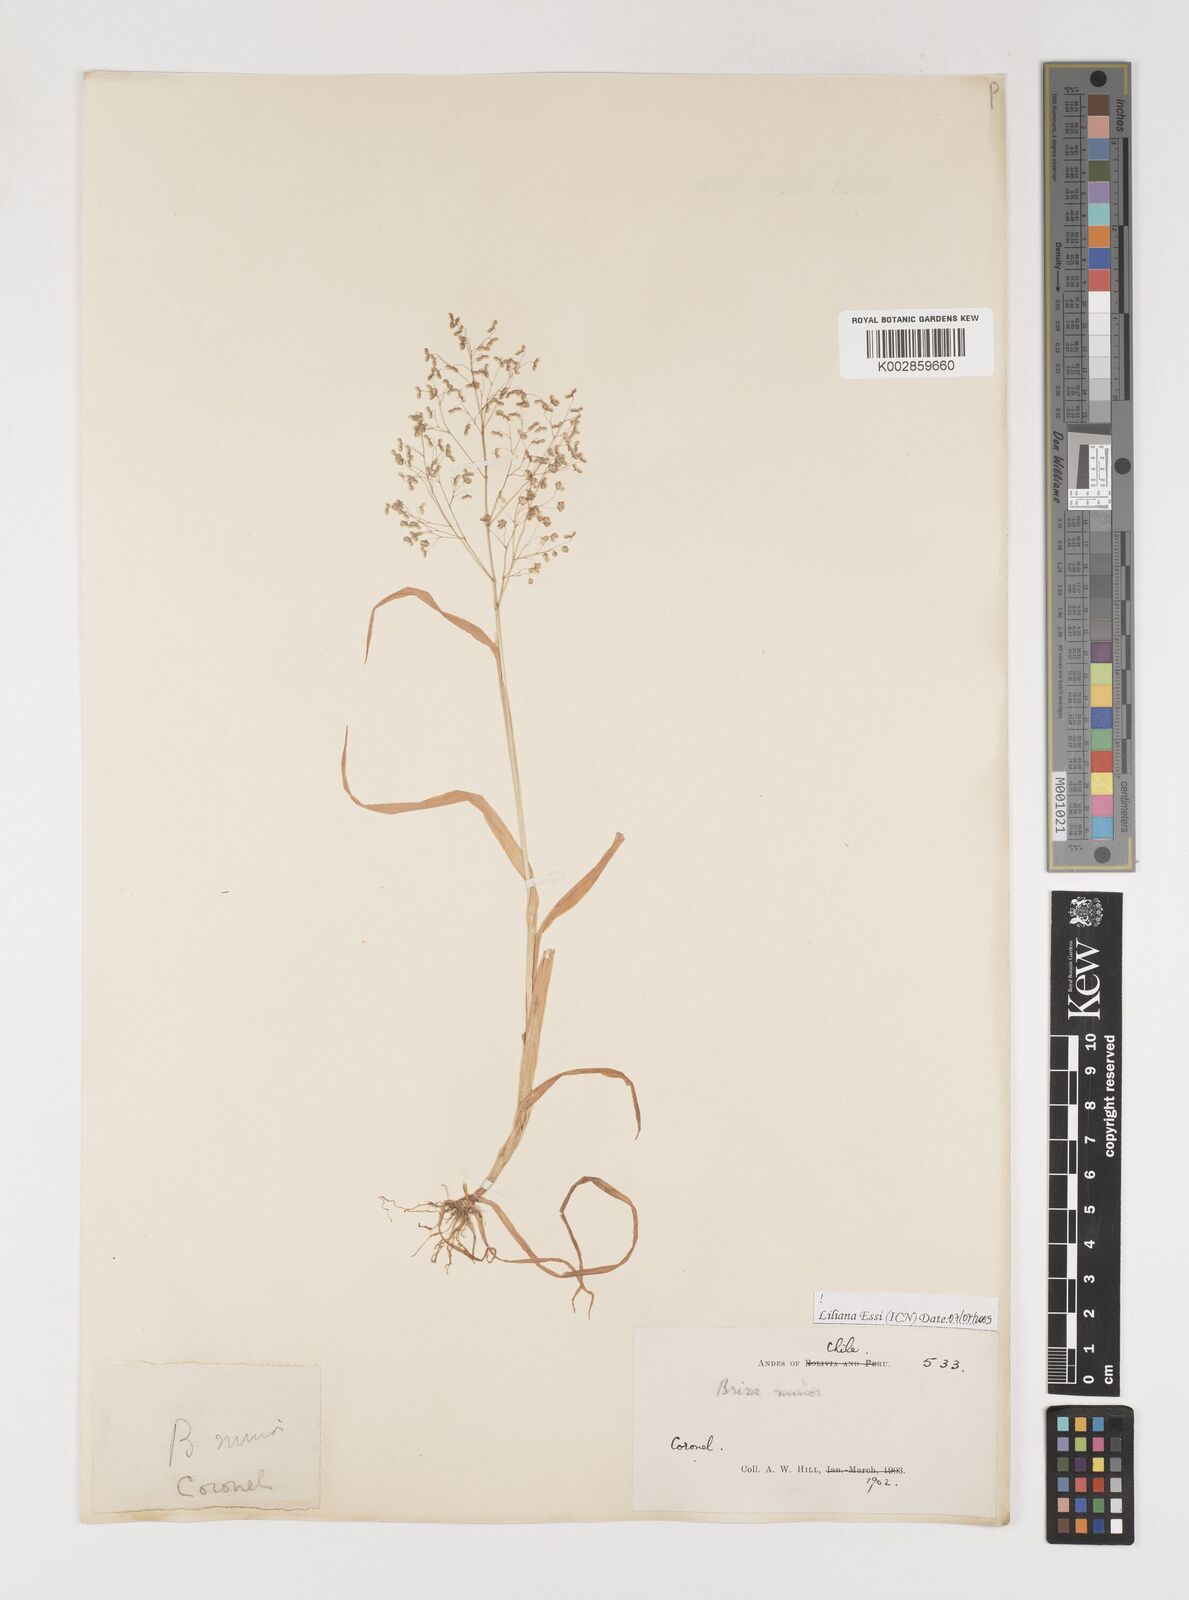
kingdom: Plantae
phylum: Tracheophyta
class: Liliopsida
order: Poales
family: Poaceae
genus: Briza
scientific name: Briza minor
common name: Lesser quaking-grass
